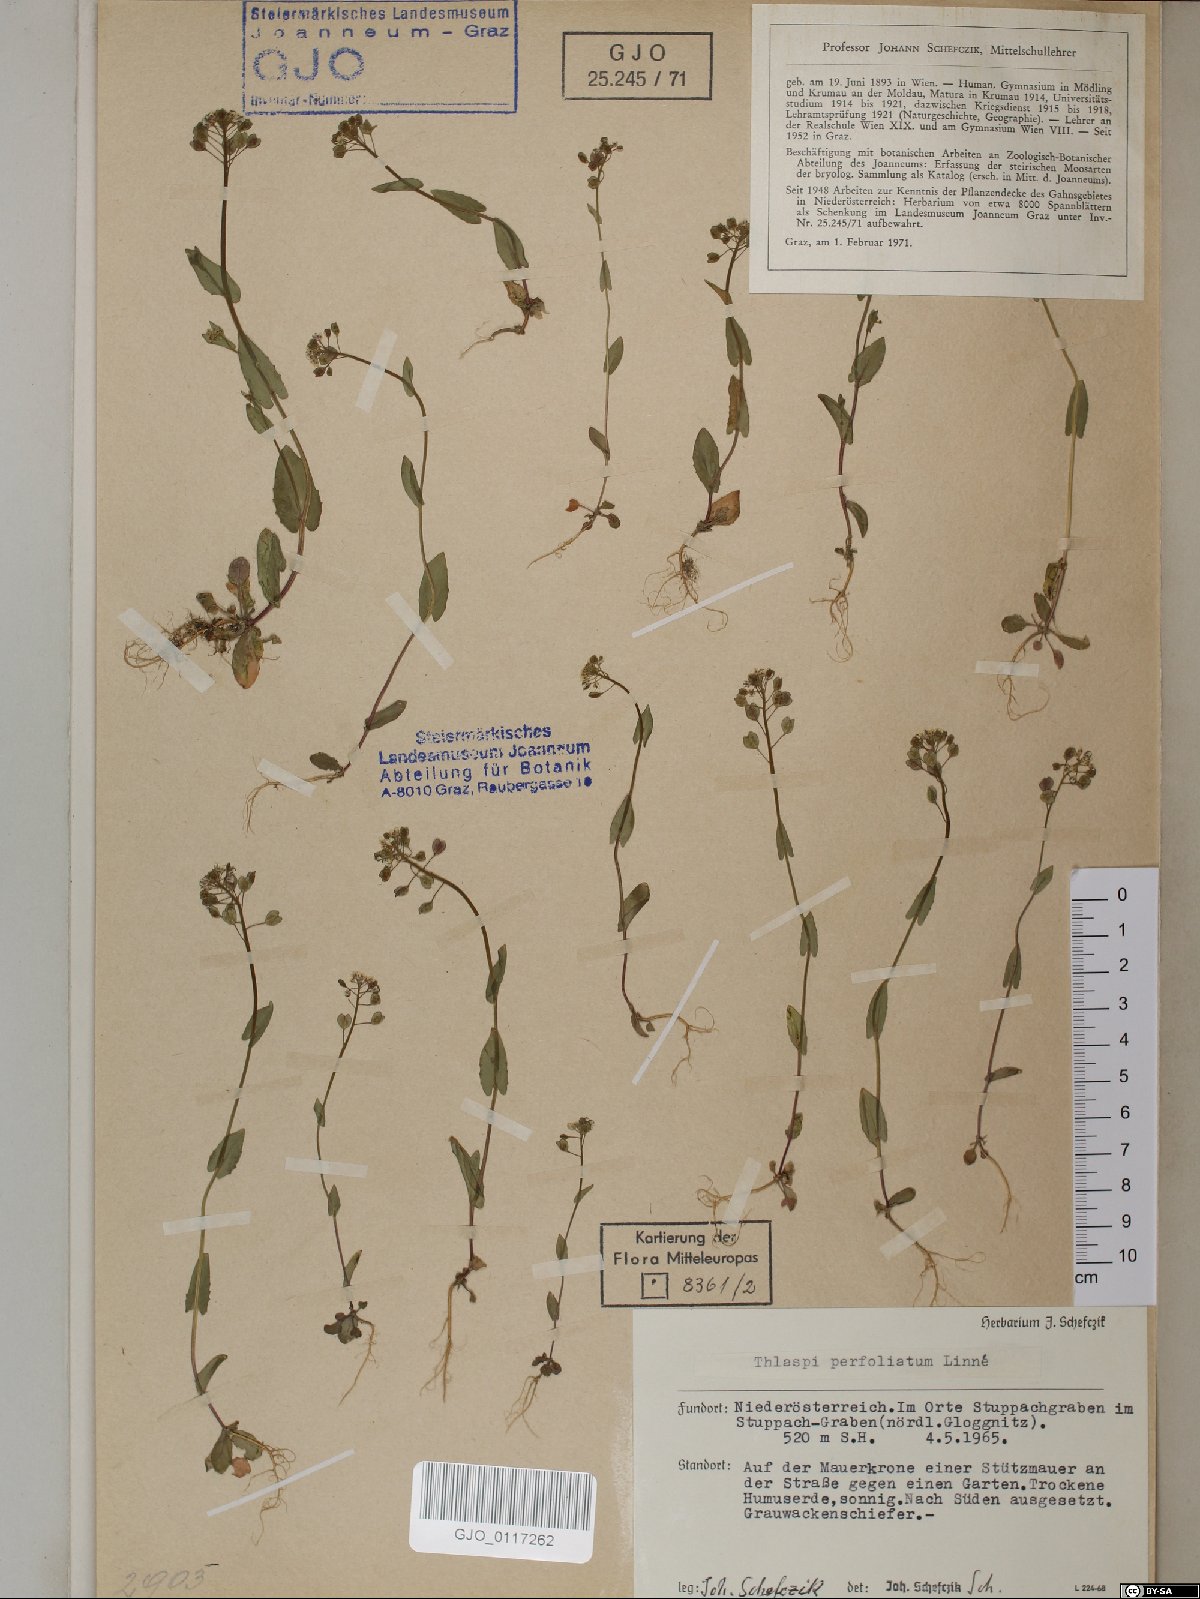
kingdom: Plantae
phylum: Tracheophyta
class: Magnoliopsida
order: Brassicales
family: Brassicaceae
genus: Noccaea
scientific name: Noccaea perfoliata
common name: Perfoliate pennycress
